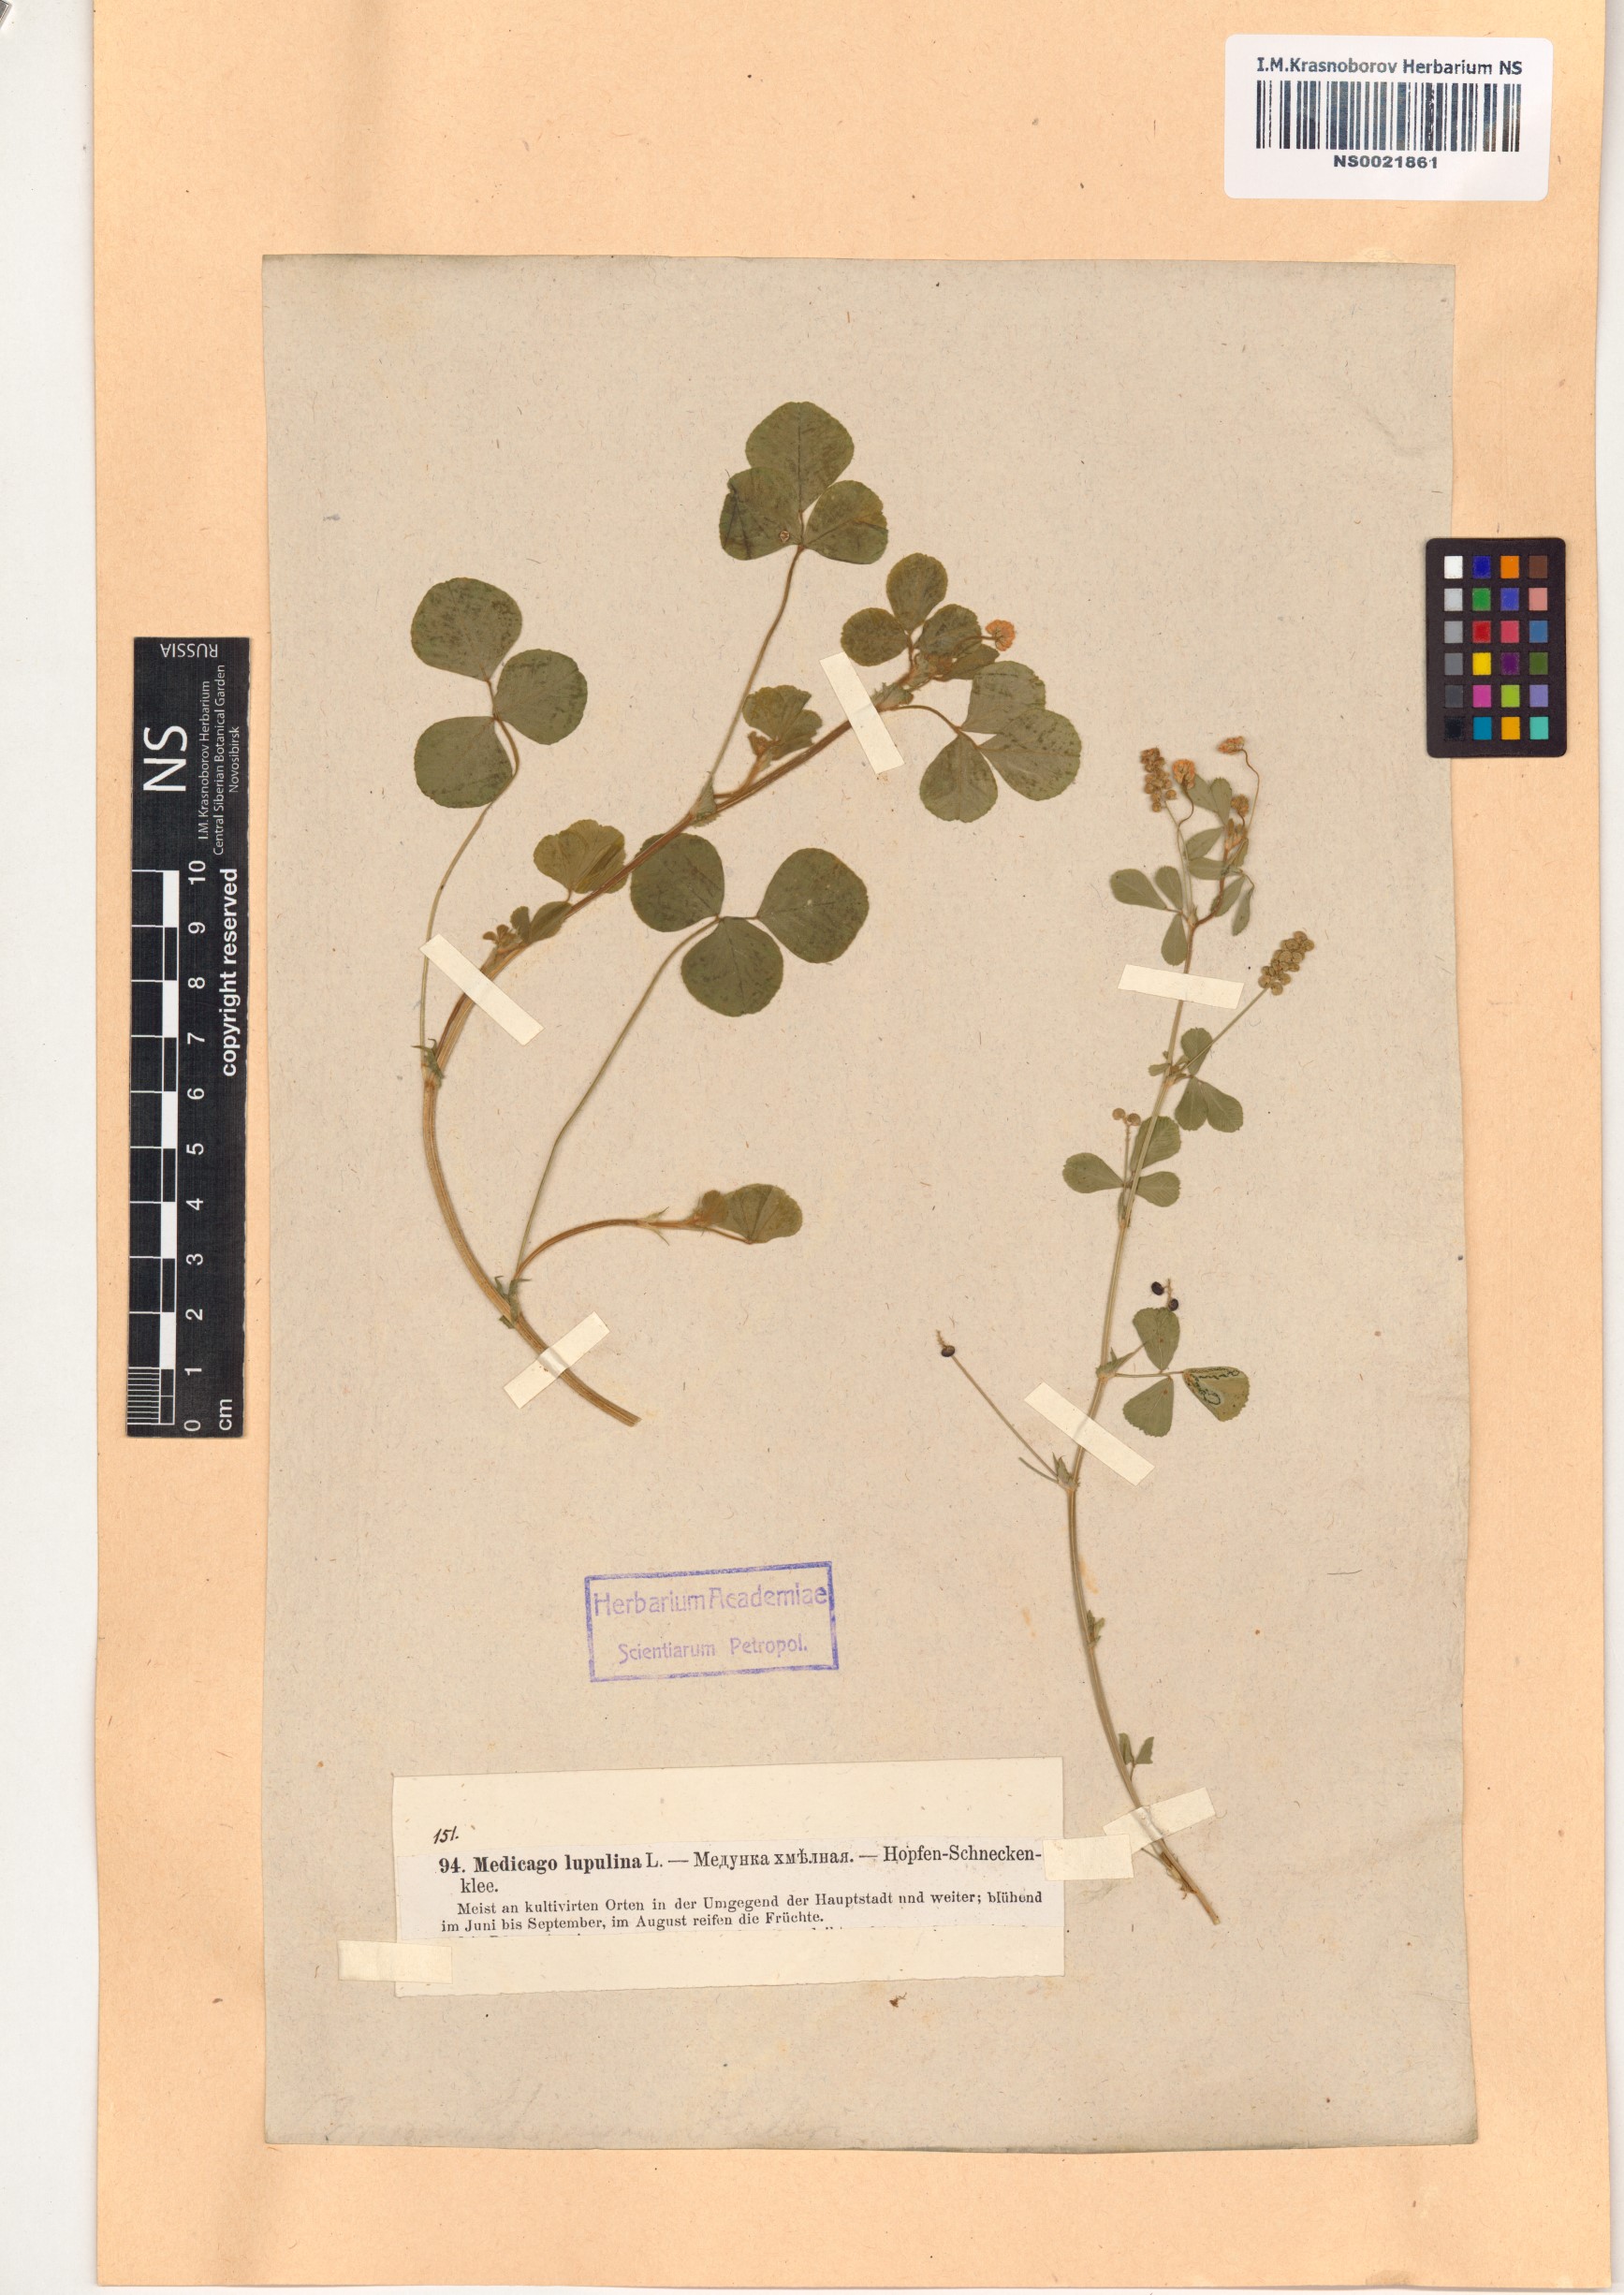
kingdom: Plantae
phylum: Tracheophyta
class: Magnoliopsida
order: Fabales
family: Fabaceae
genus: Medicago
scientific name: Medicago lupulina
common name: Black medick
